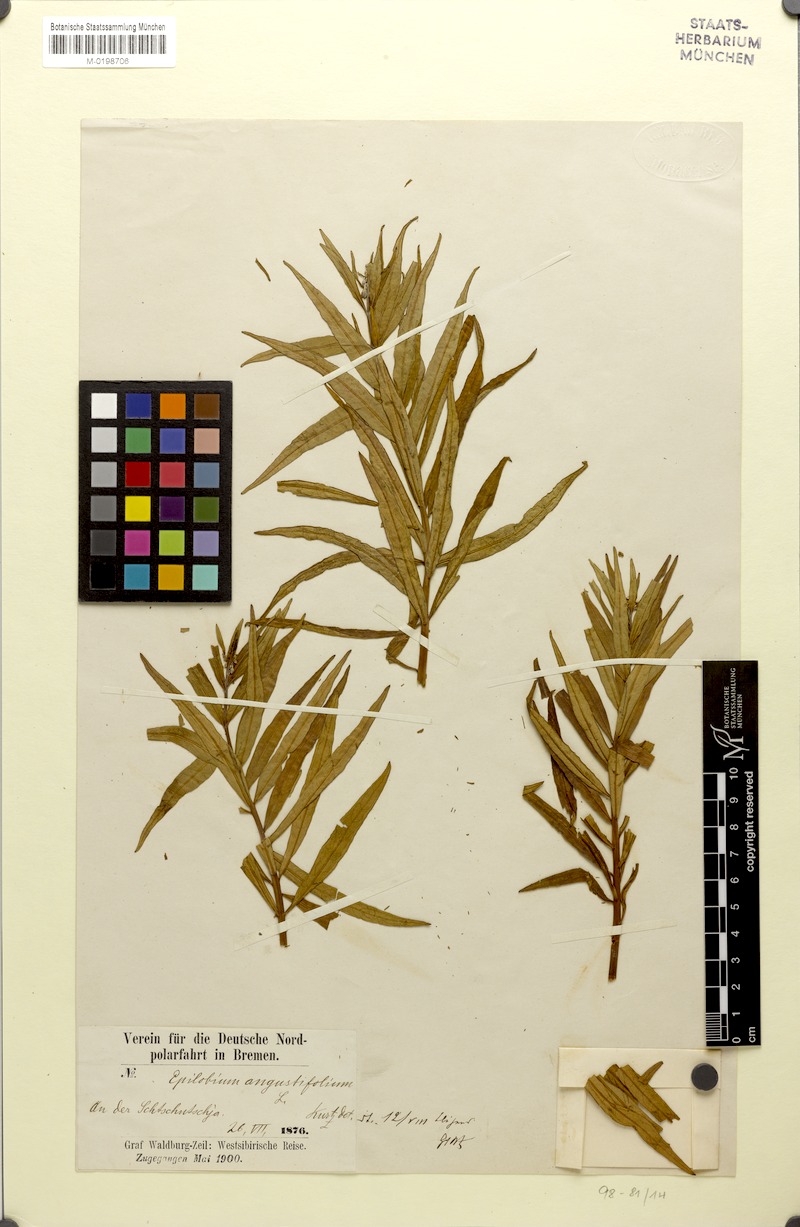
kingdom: Plantae
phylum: Tracheophyta
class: Magnoliopsida
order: Myrtales
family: Onagraceae
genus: Chamaenerion
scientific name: Chamaenerion angustifolium
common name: Fireweed
